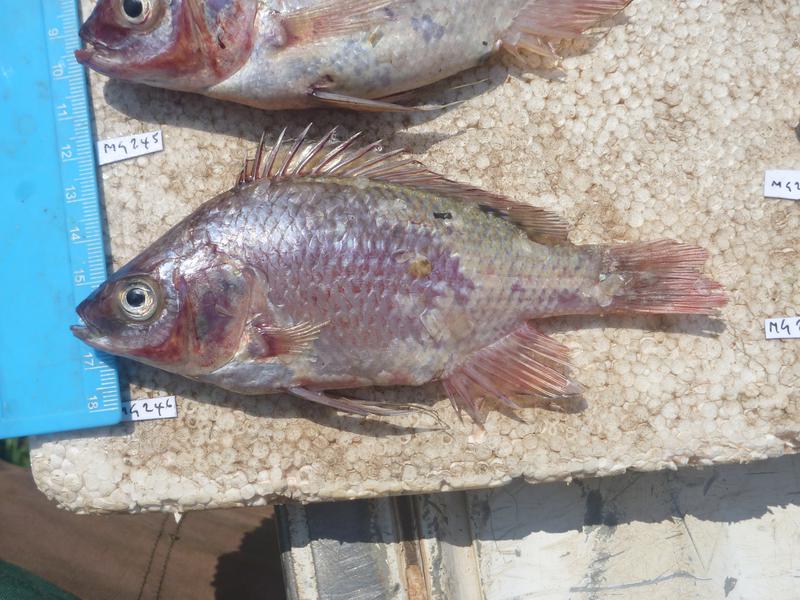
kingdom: Animalia
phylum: Chordata
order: Perciformes
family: Cichlidae
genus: Oreochromis
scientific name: Oreochromis esculentus
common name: Carp
